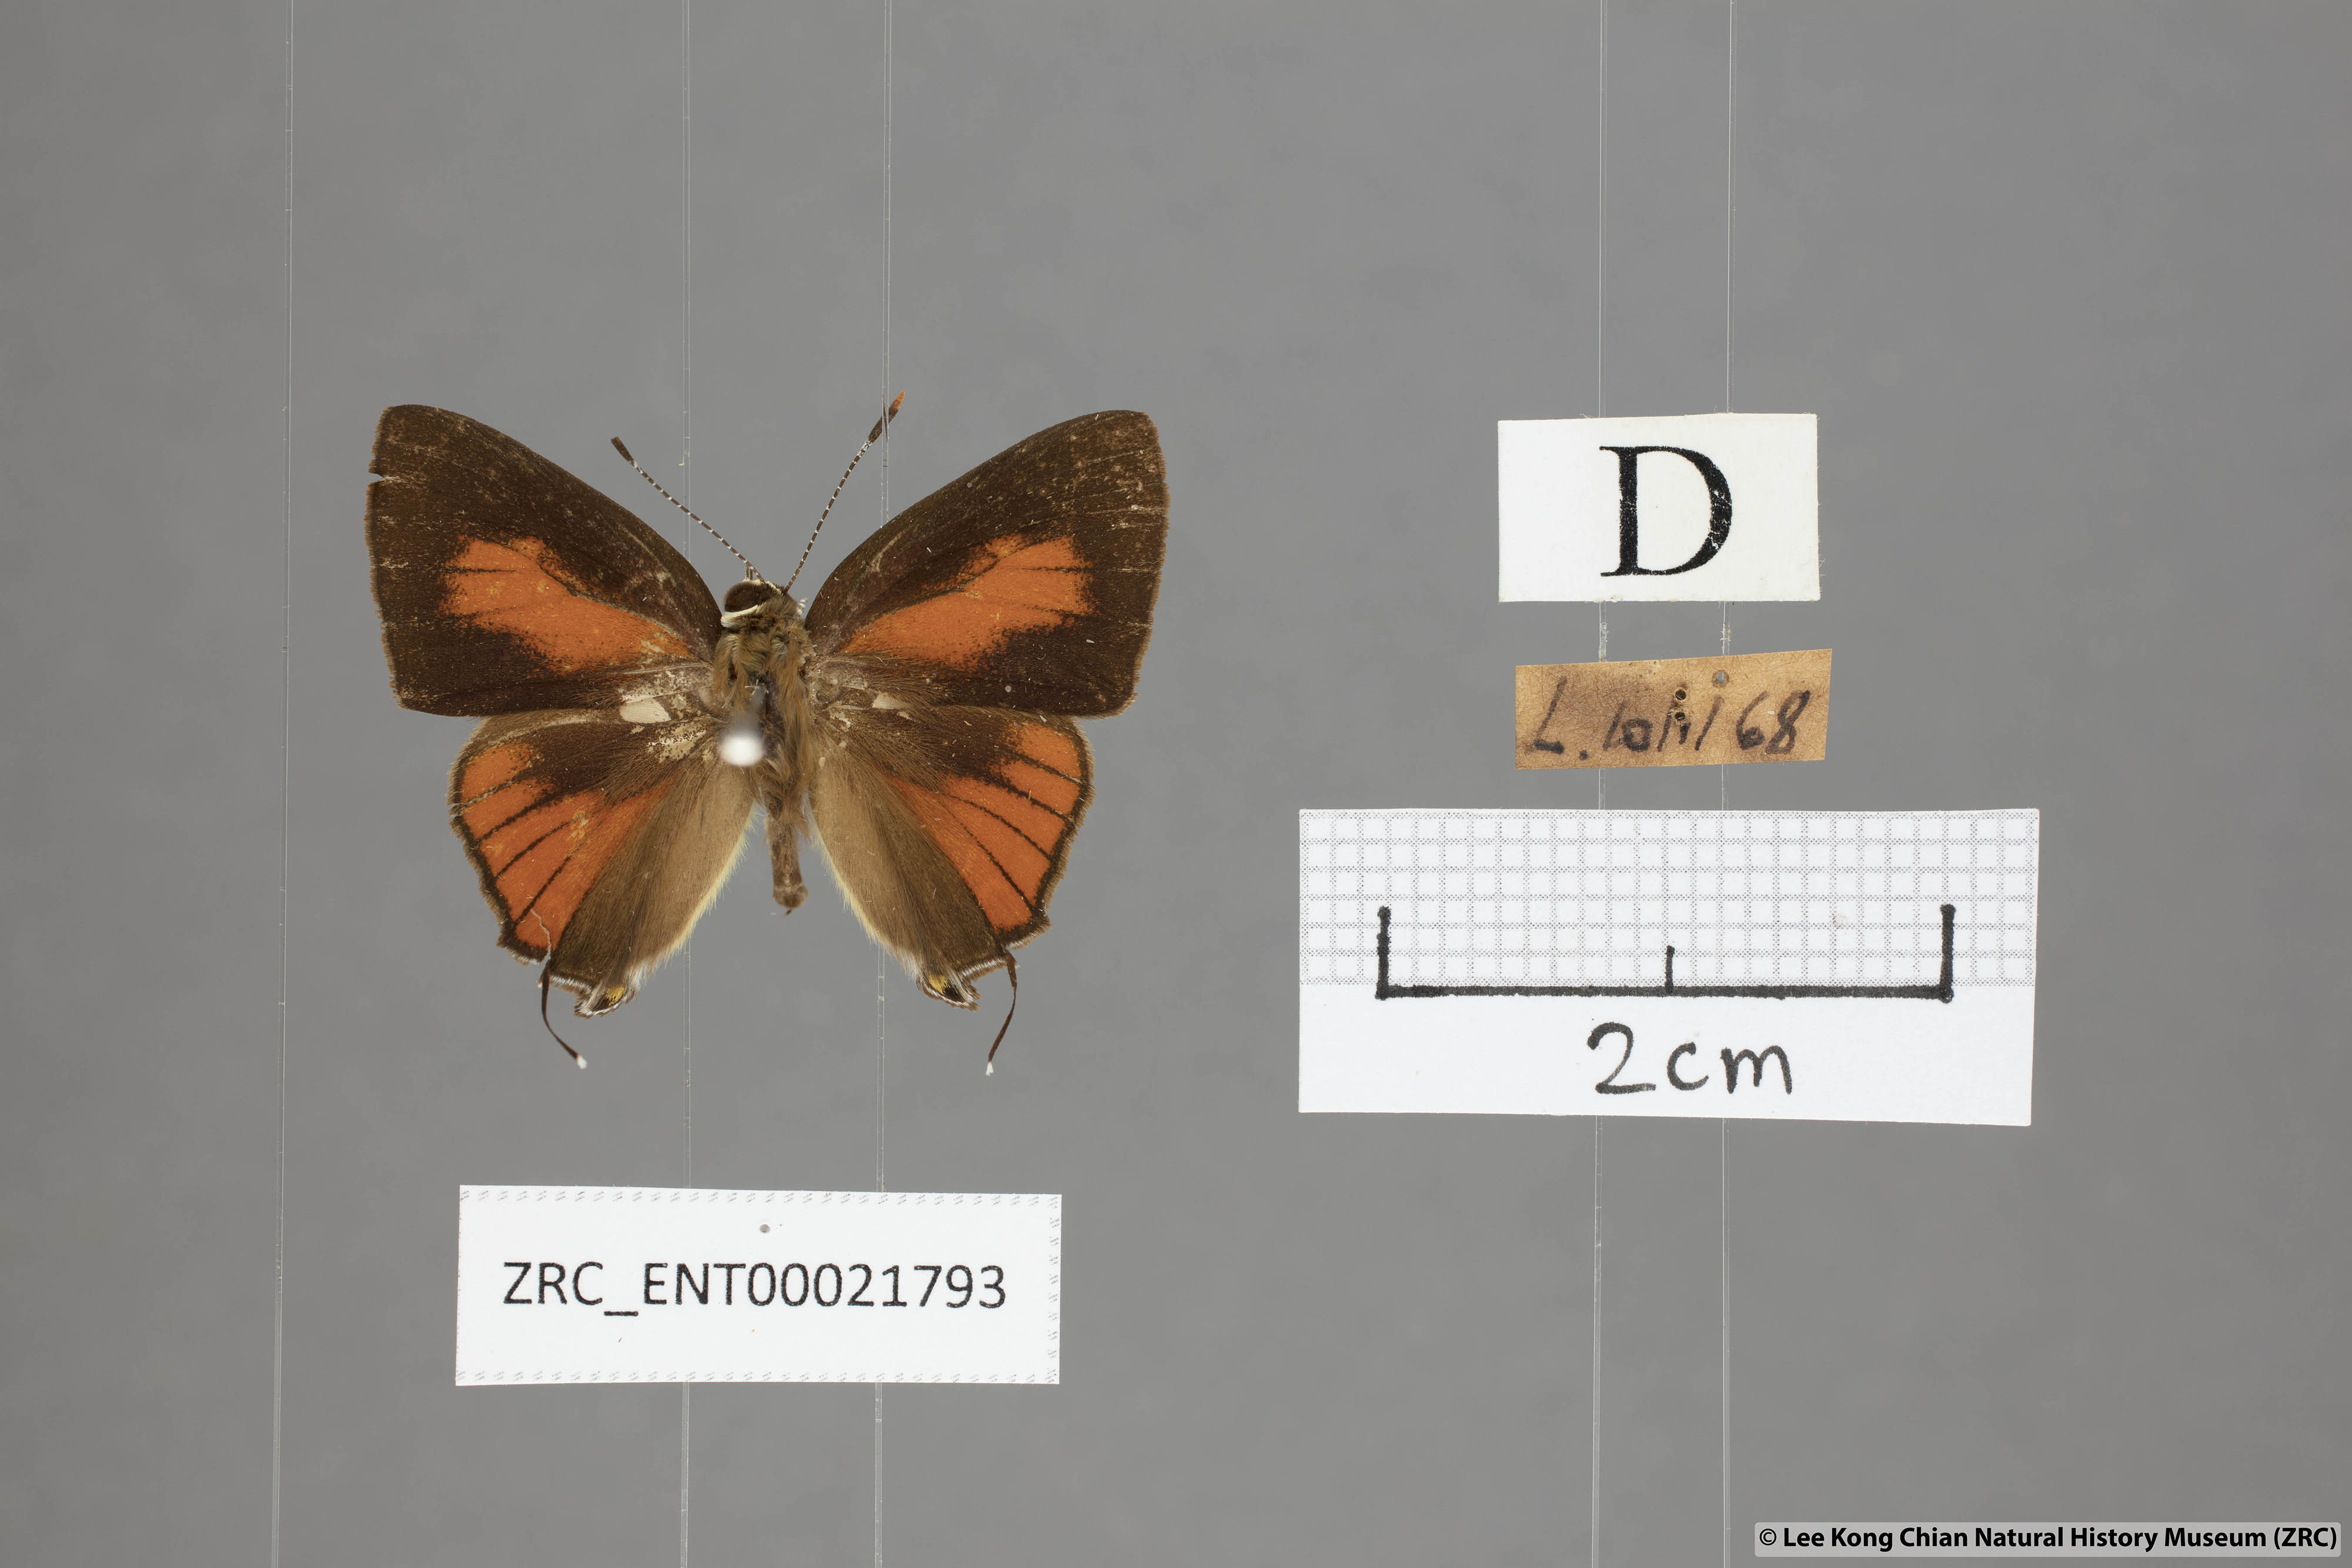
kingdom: Animalia
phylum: Arthropoda
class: Insecta
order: Lepidoptera
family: Lycaenidae
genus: Rapala
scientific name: Rapala dieneces
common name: Scarlet flash
